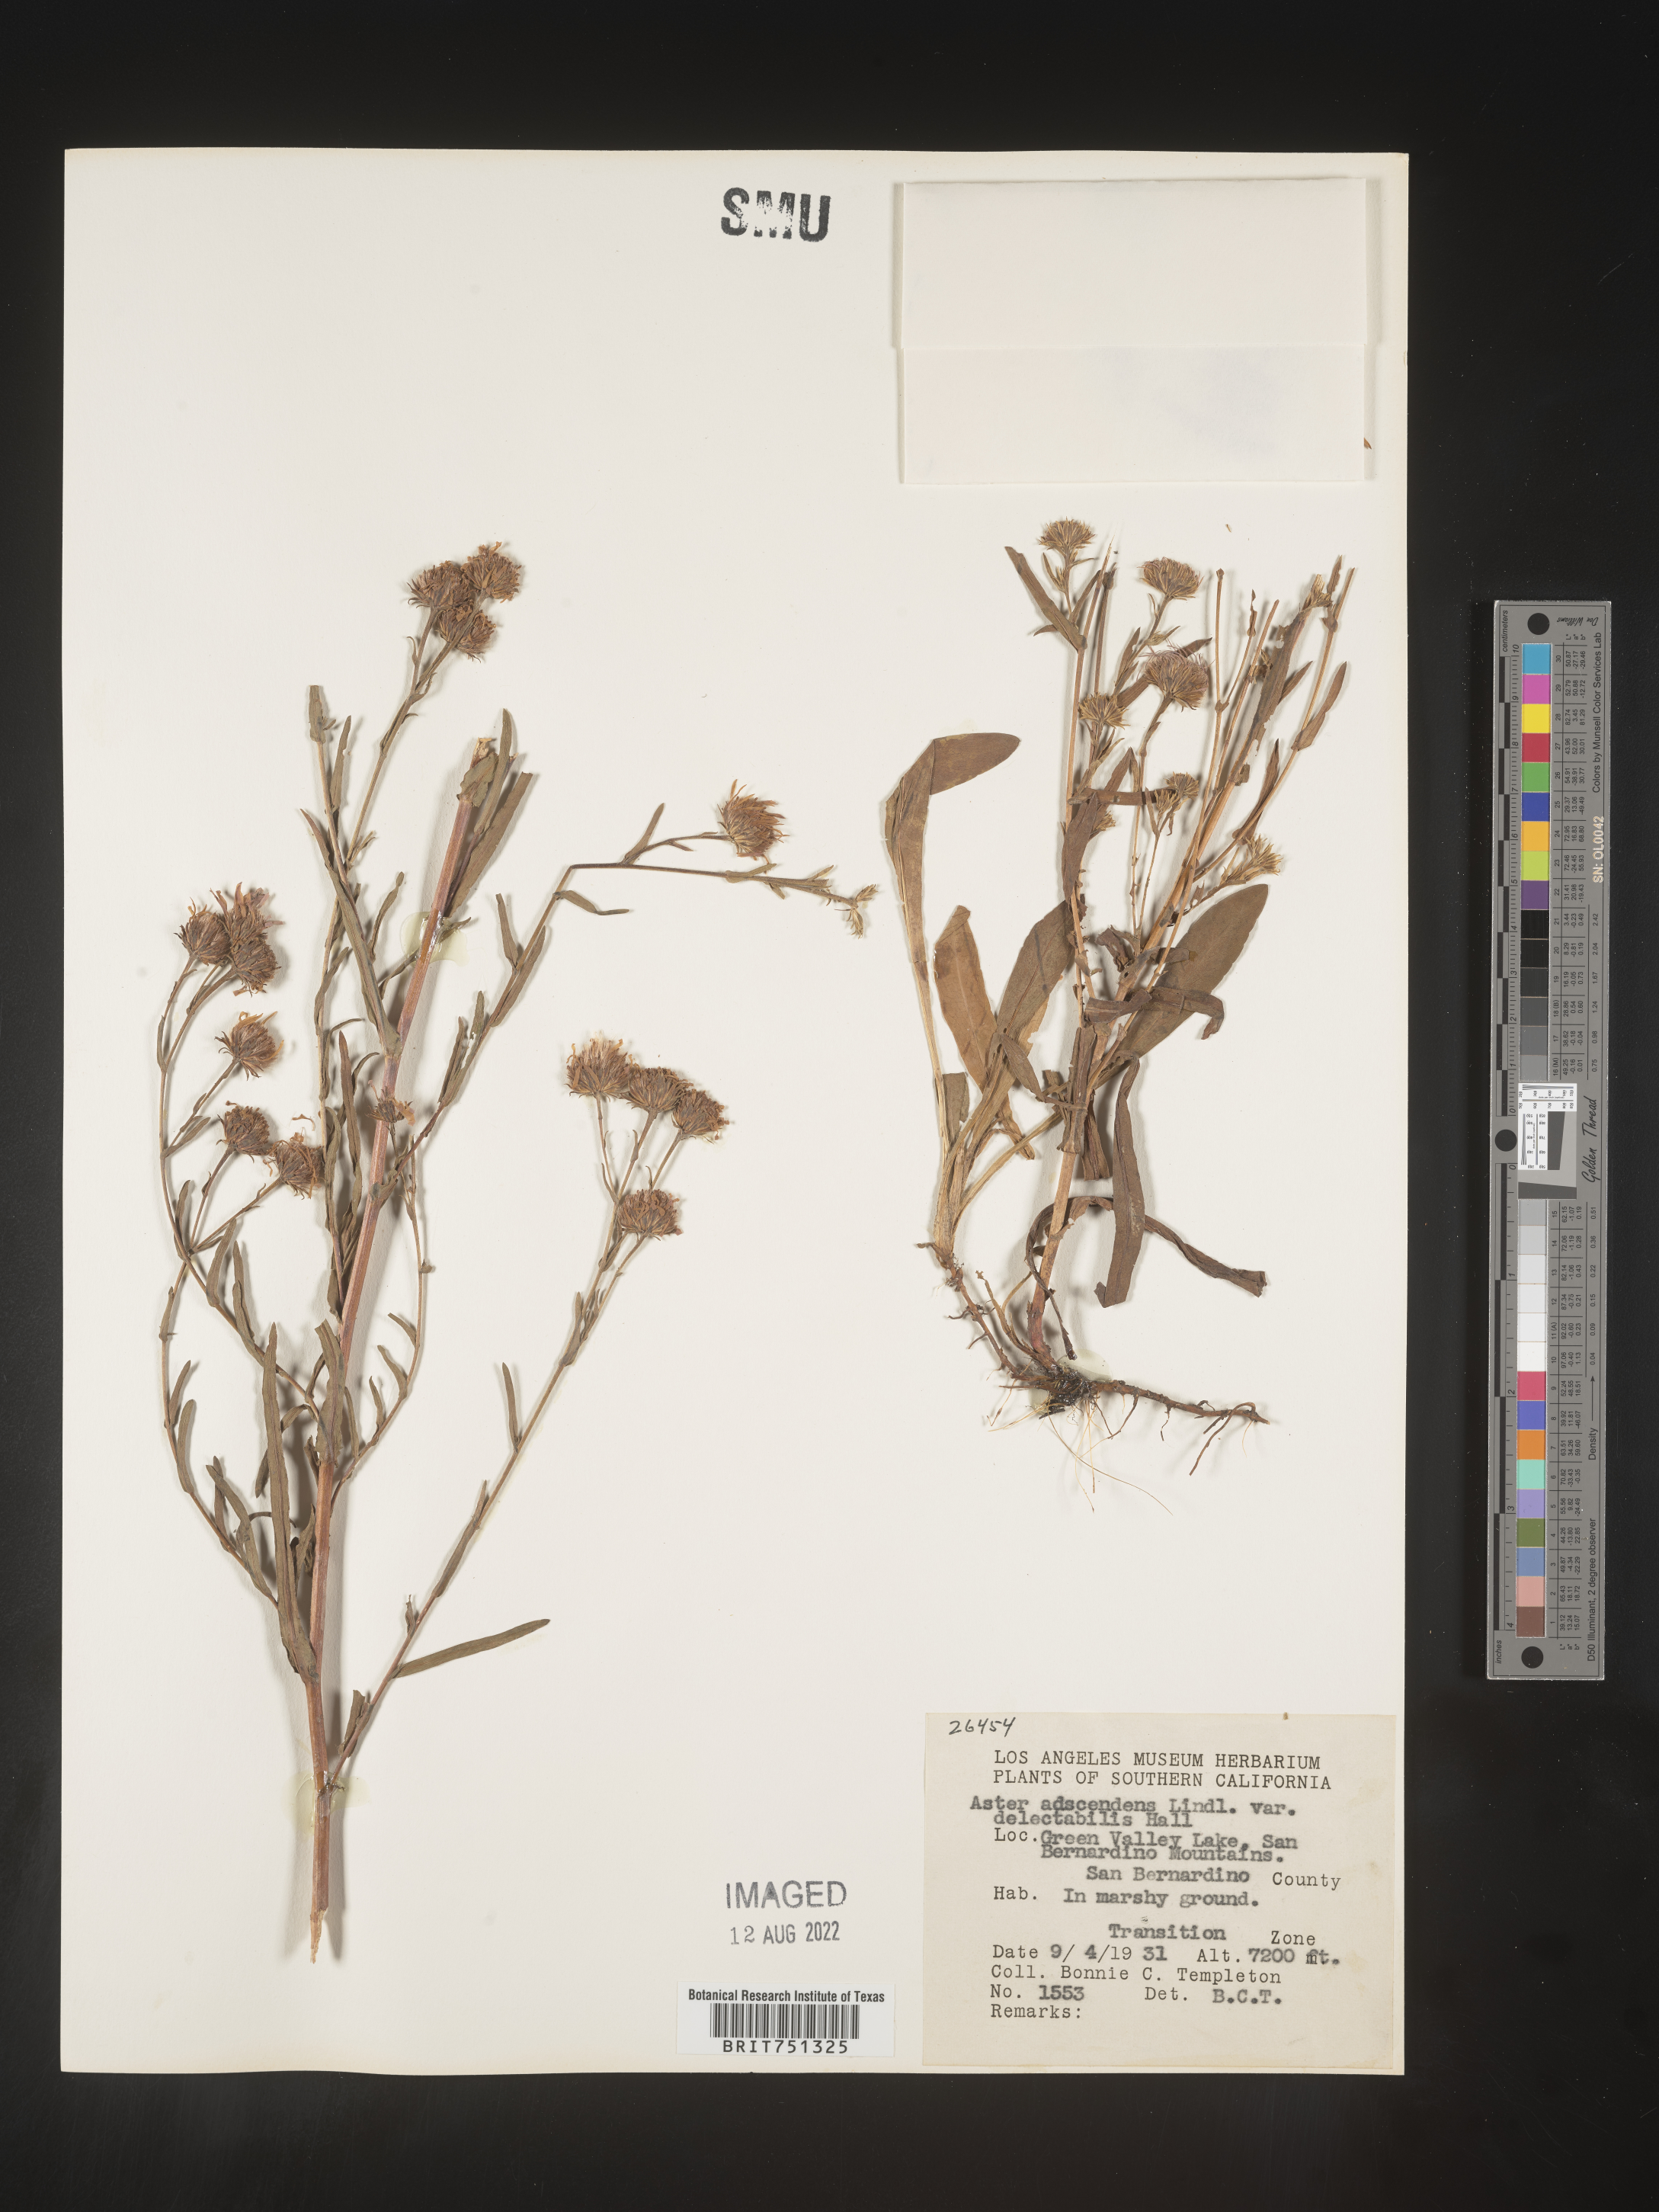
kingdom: Plantae
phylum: Tracheophyta
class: Magnoliopsida
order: Asterales
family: Asteraceae
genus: Symphyotrichum
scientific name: Symphyotrichum spathulatum
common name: Western mountain aster
